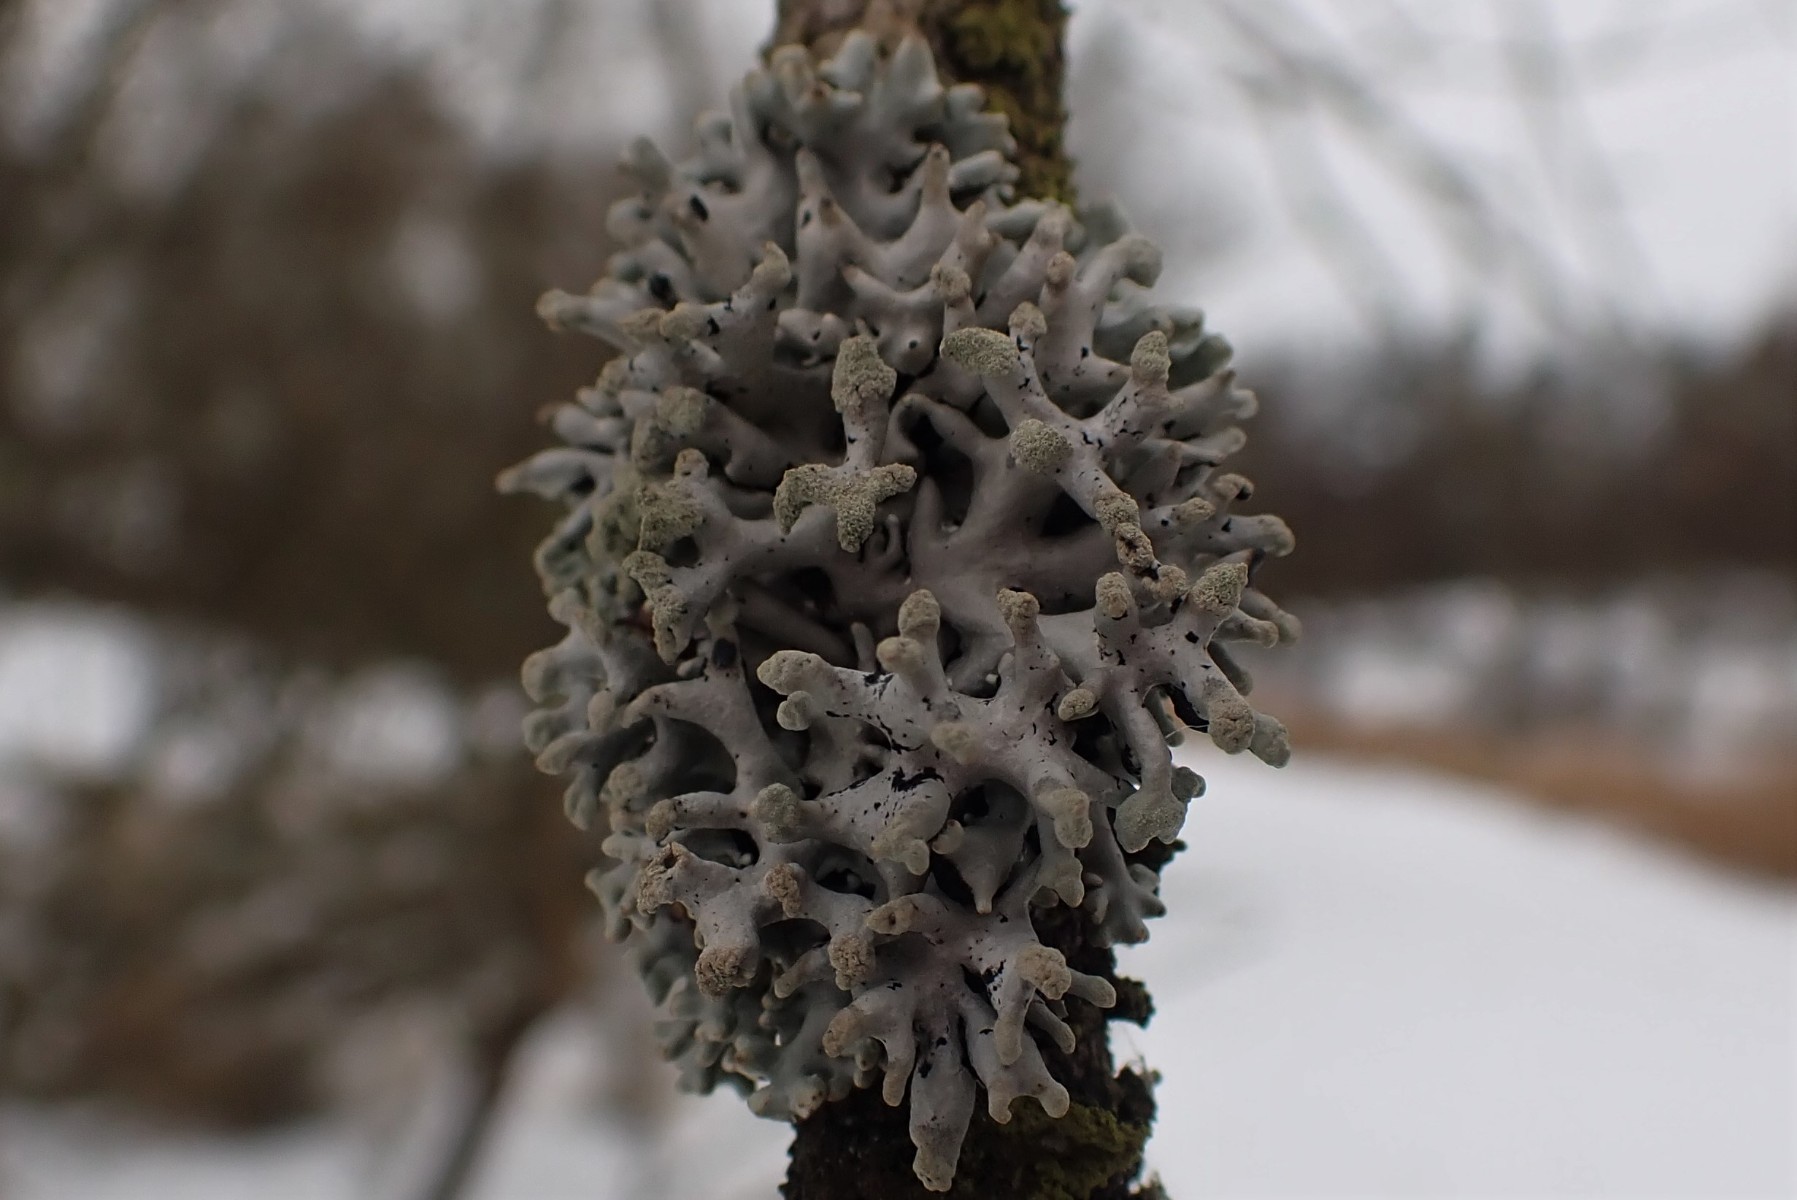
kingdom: Fungi
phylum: Ascomycota
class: Lecanoromycetes
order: Lecanorales
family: Parmeliaceae
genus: Hypogymnia
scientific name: Hypogymnia tubulosa
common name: finger-kvistlav
